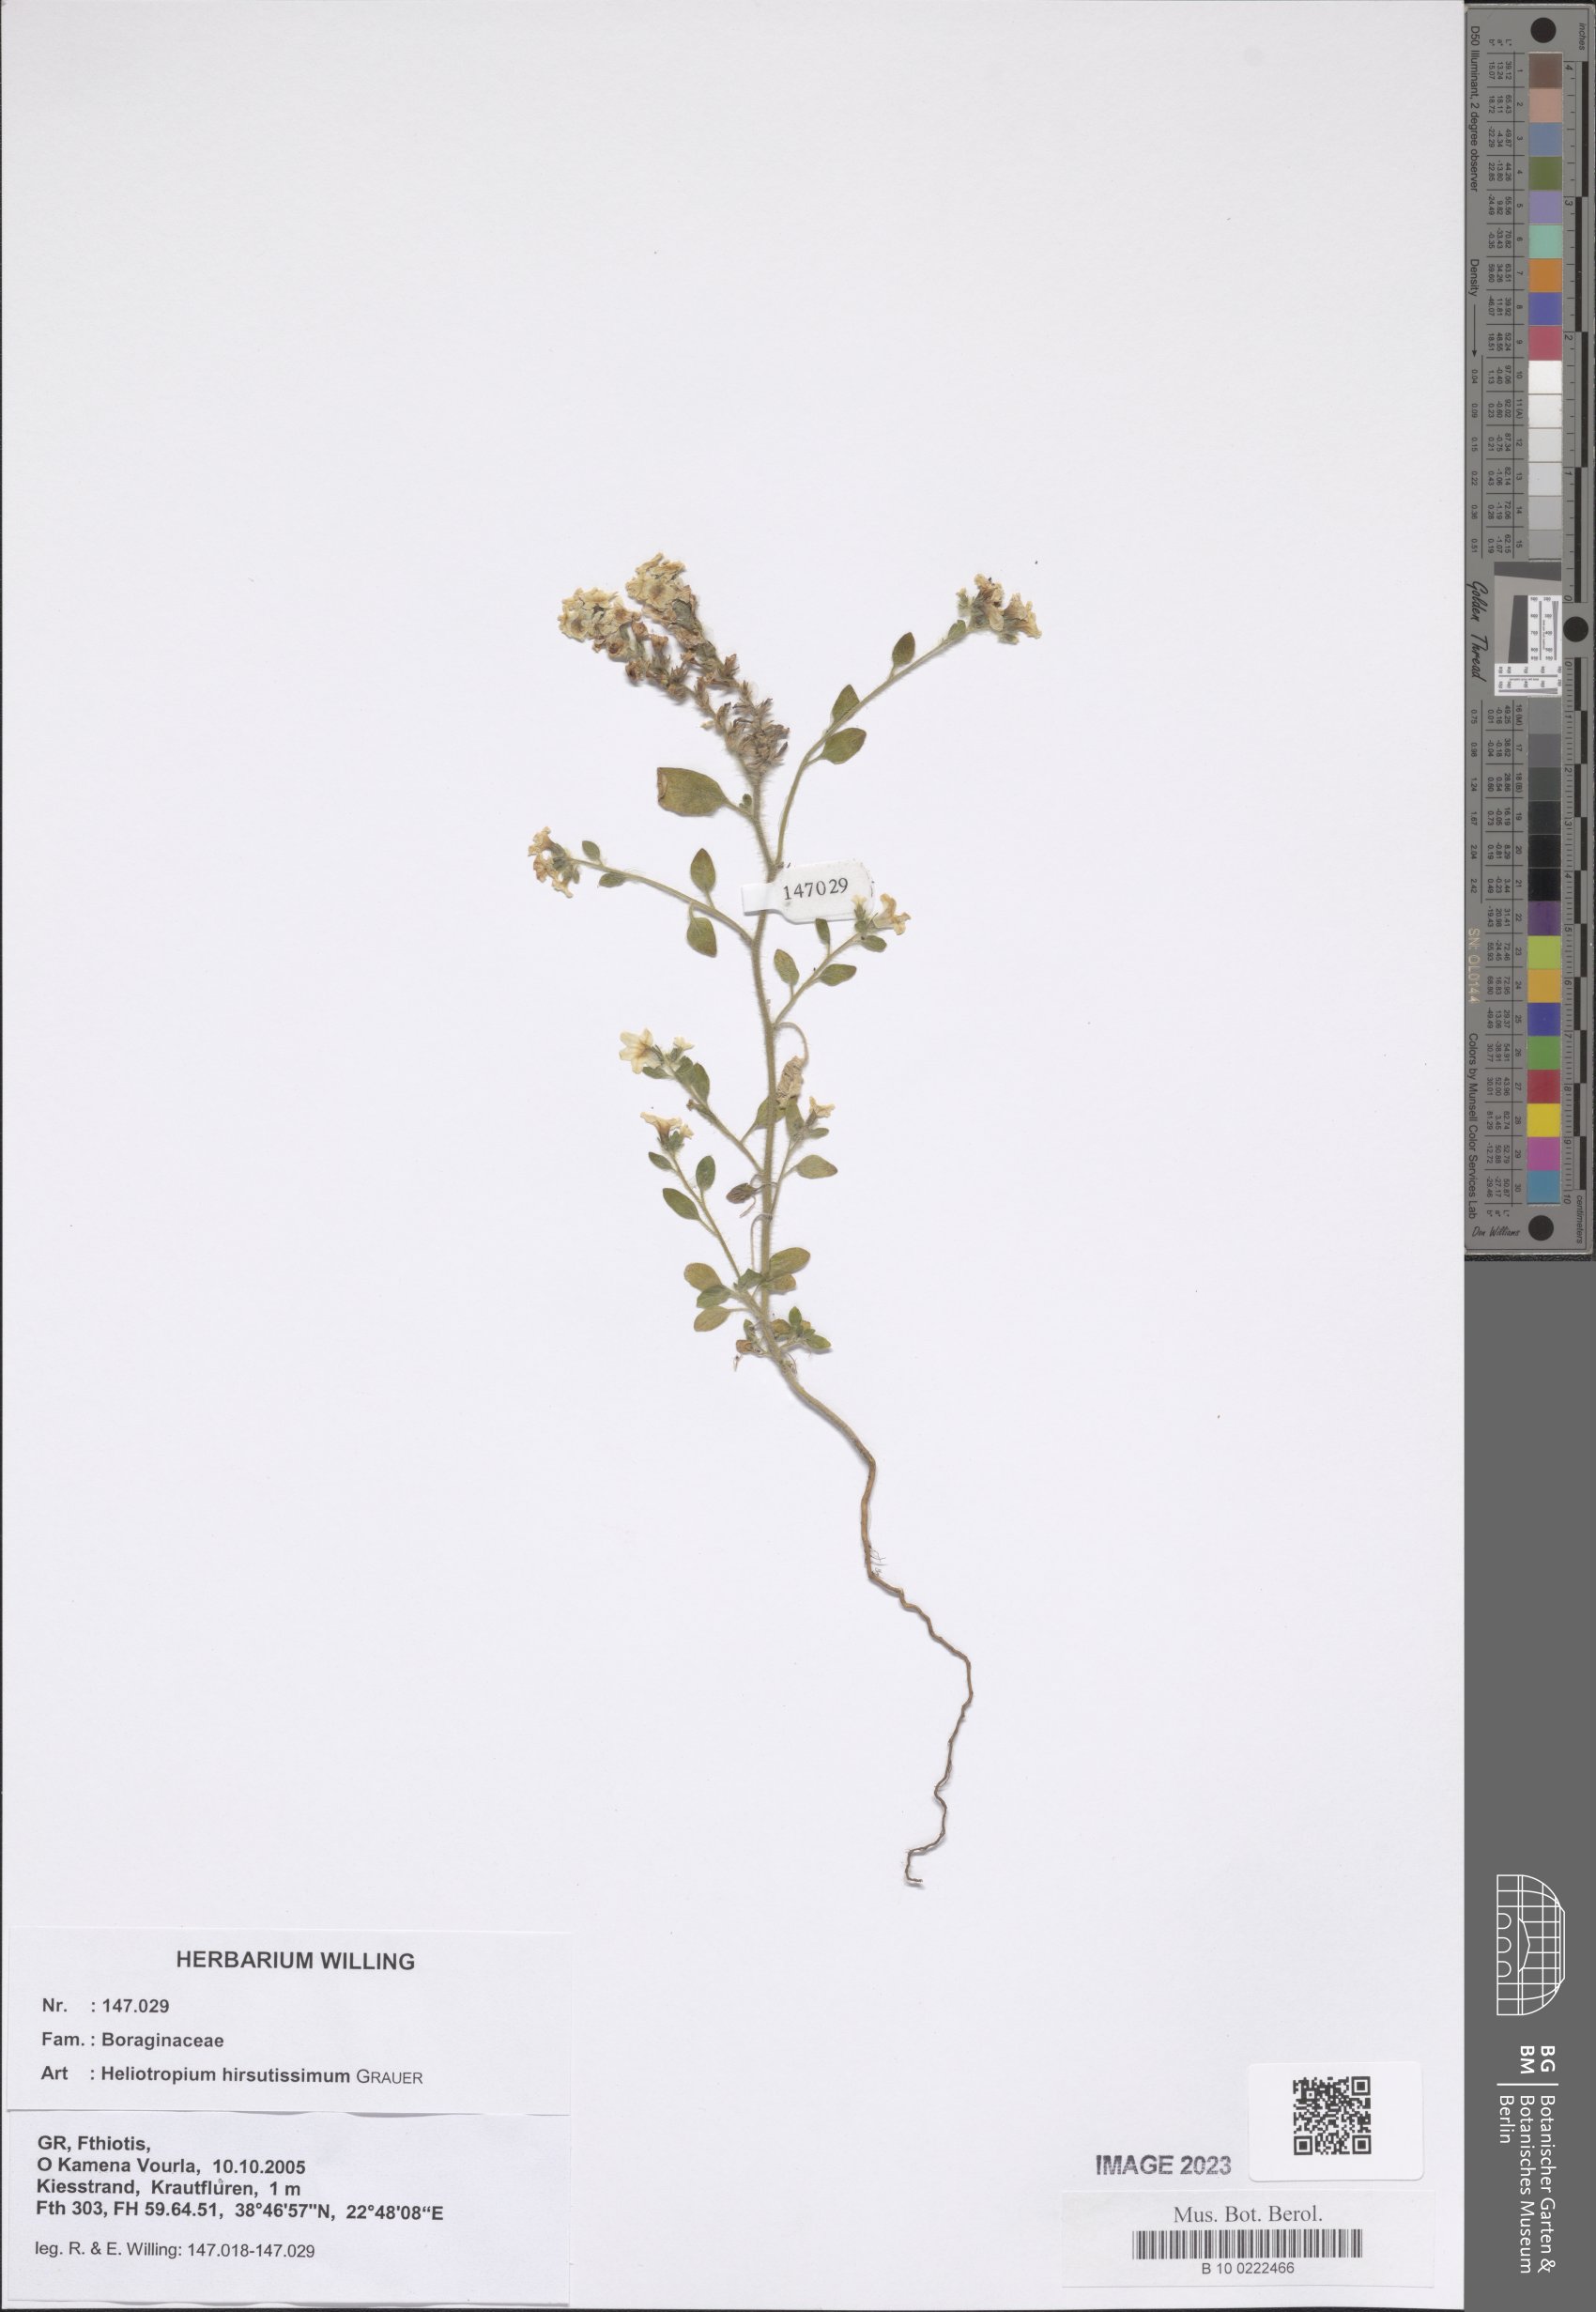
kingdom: Plantae
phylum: Tracheophyta
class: Magnoliopsida
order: Boraginales
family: Heliotropiaceae
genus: Heliotropium
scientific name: Heliotropium hirsutissimum
